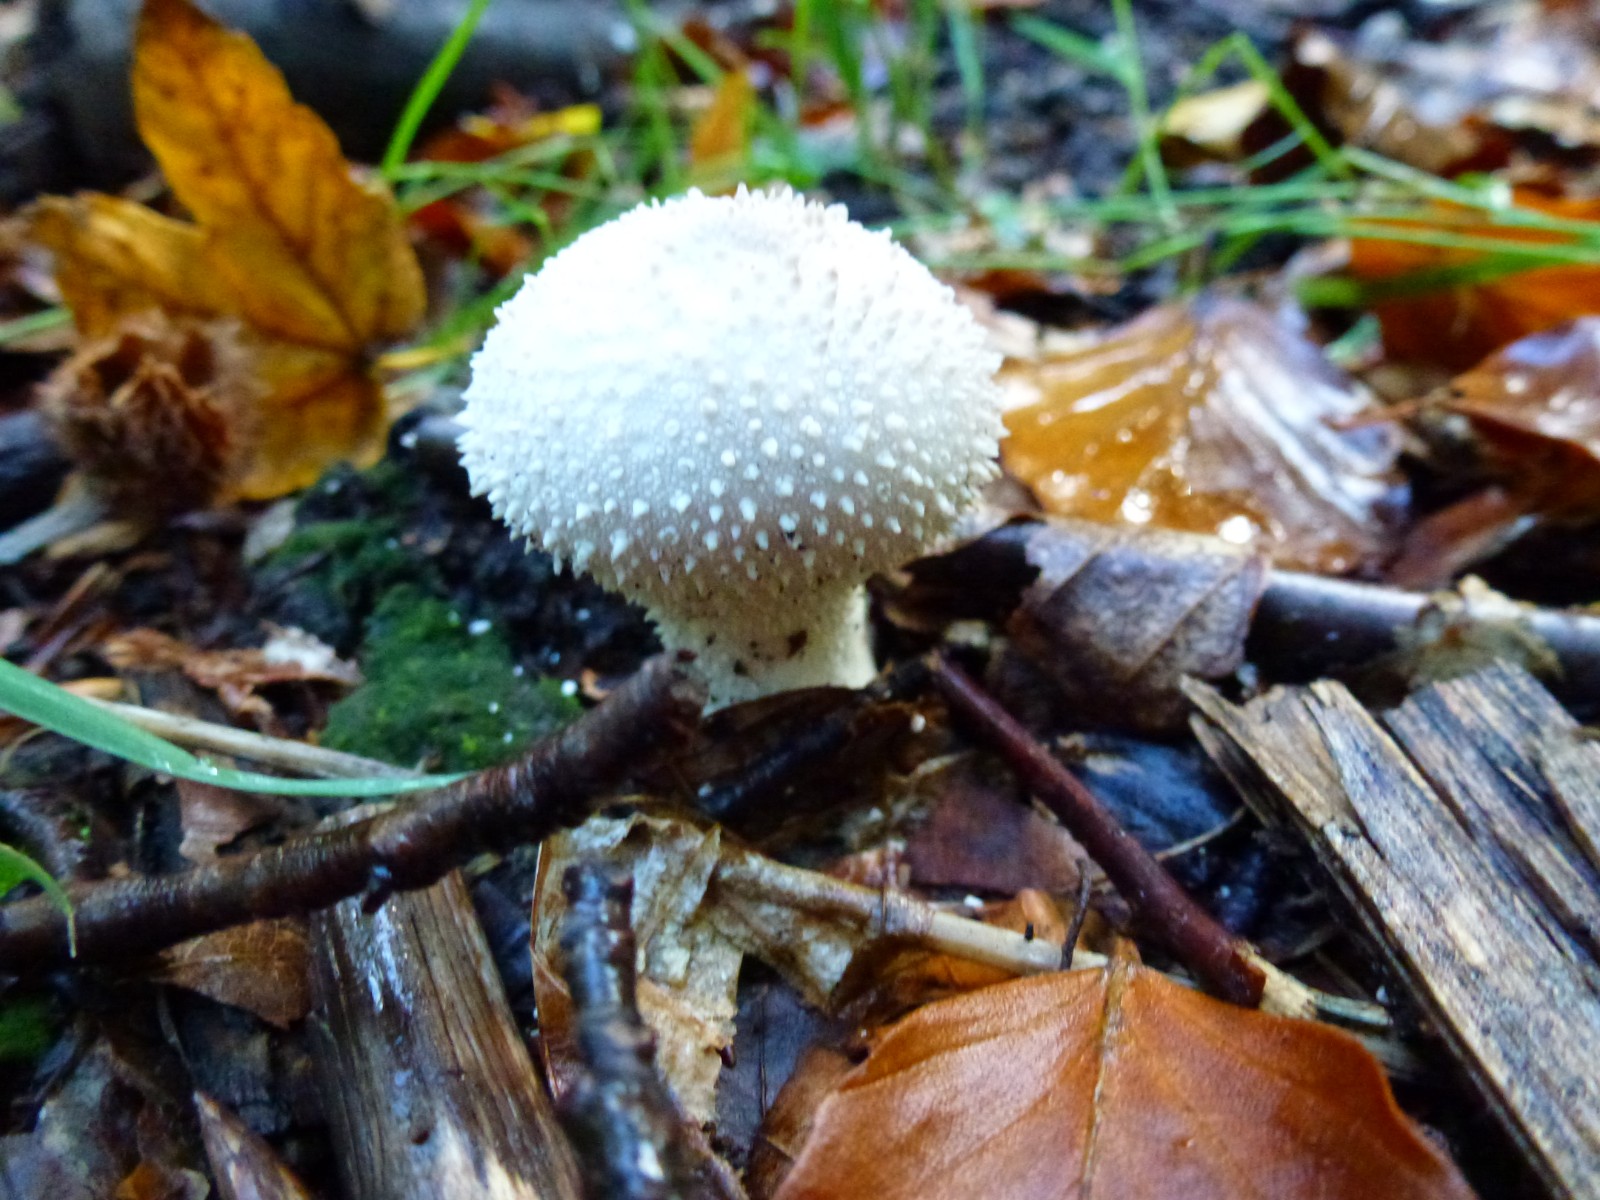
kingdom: Fungi
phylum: Basidiomycota
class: Agaricomycetes
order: Agaricales
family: Lycoperdaceae
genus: Lycoperdon
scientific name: Lycoperdon perlatum
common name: krystal-støvbold
